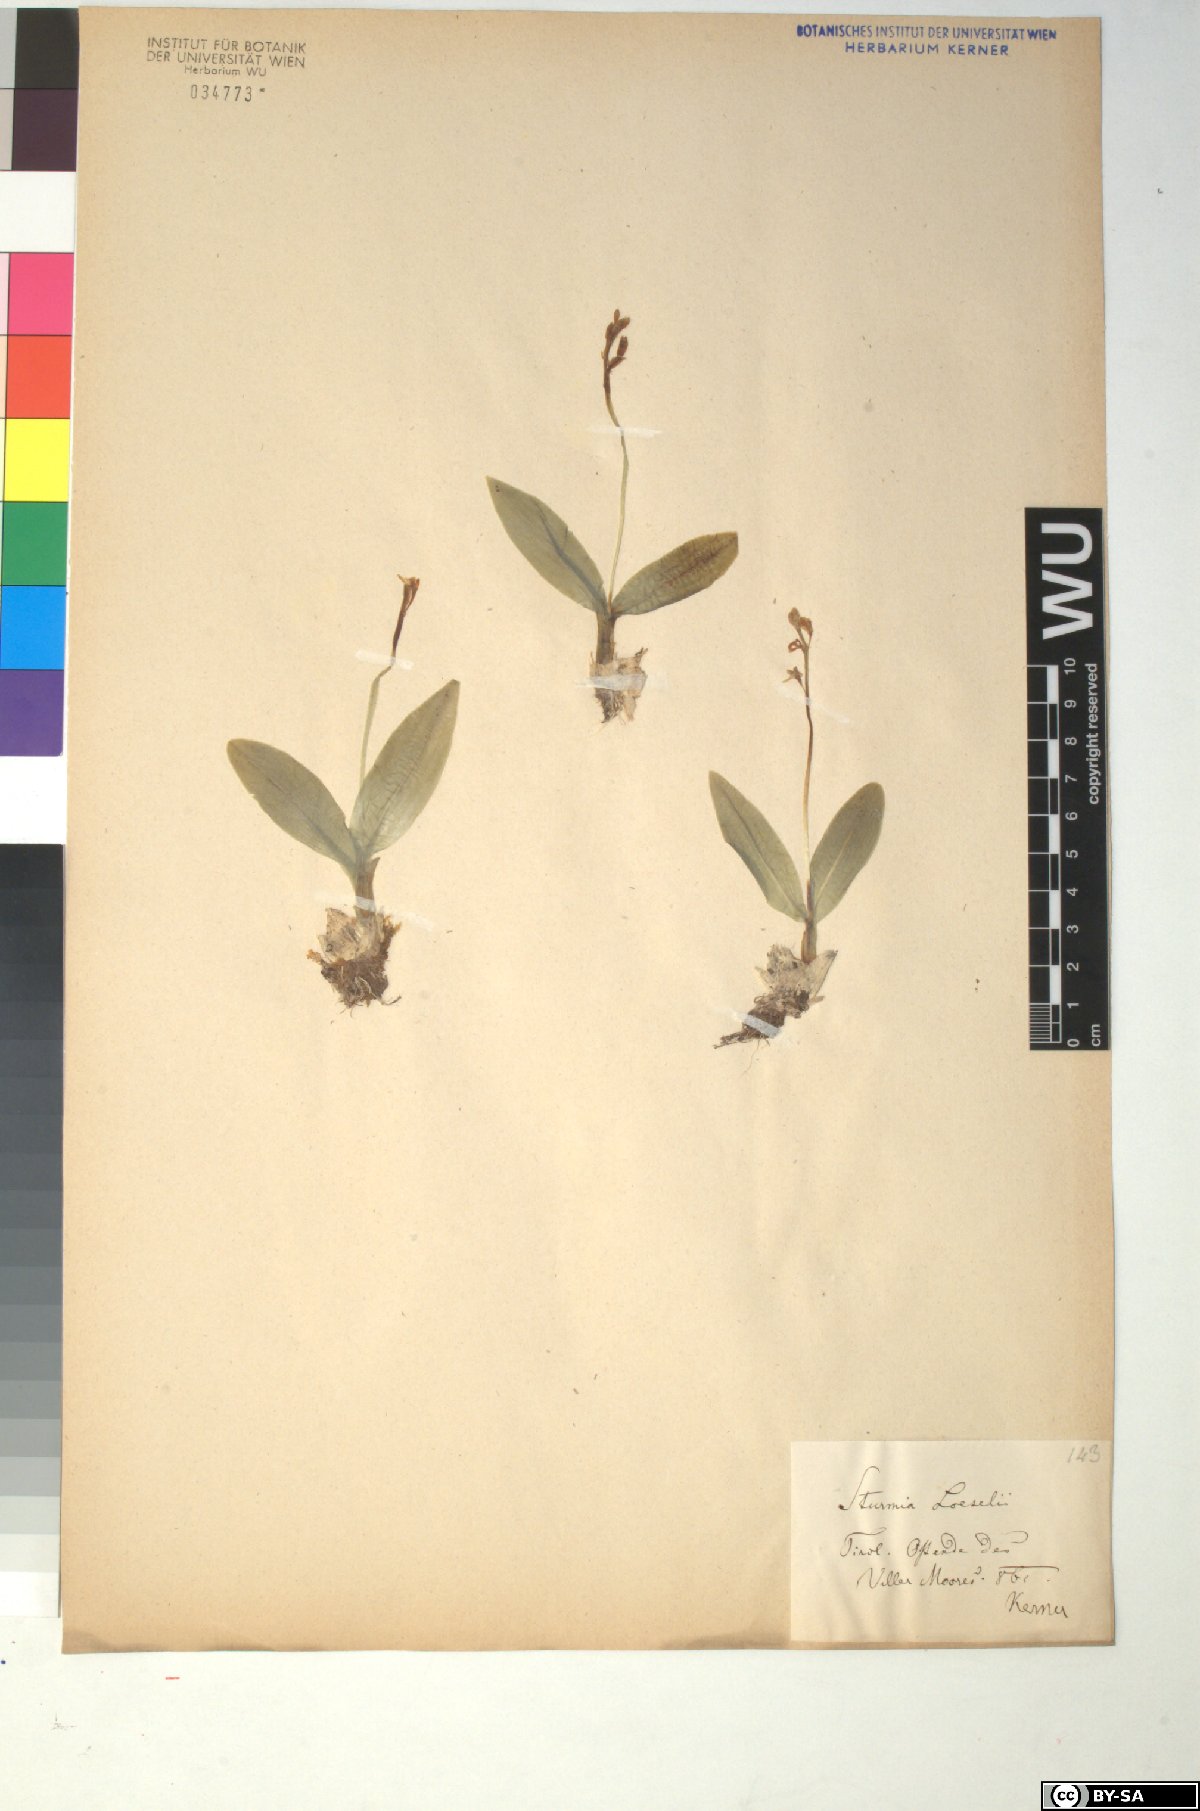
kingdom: Animalia
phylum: Arthropoda
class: Insecta
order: Coleoptera
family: Curculionidae
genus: Liparis
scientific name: Liparis loeselii
